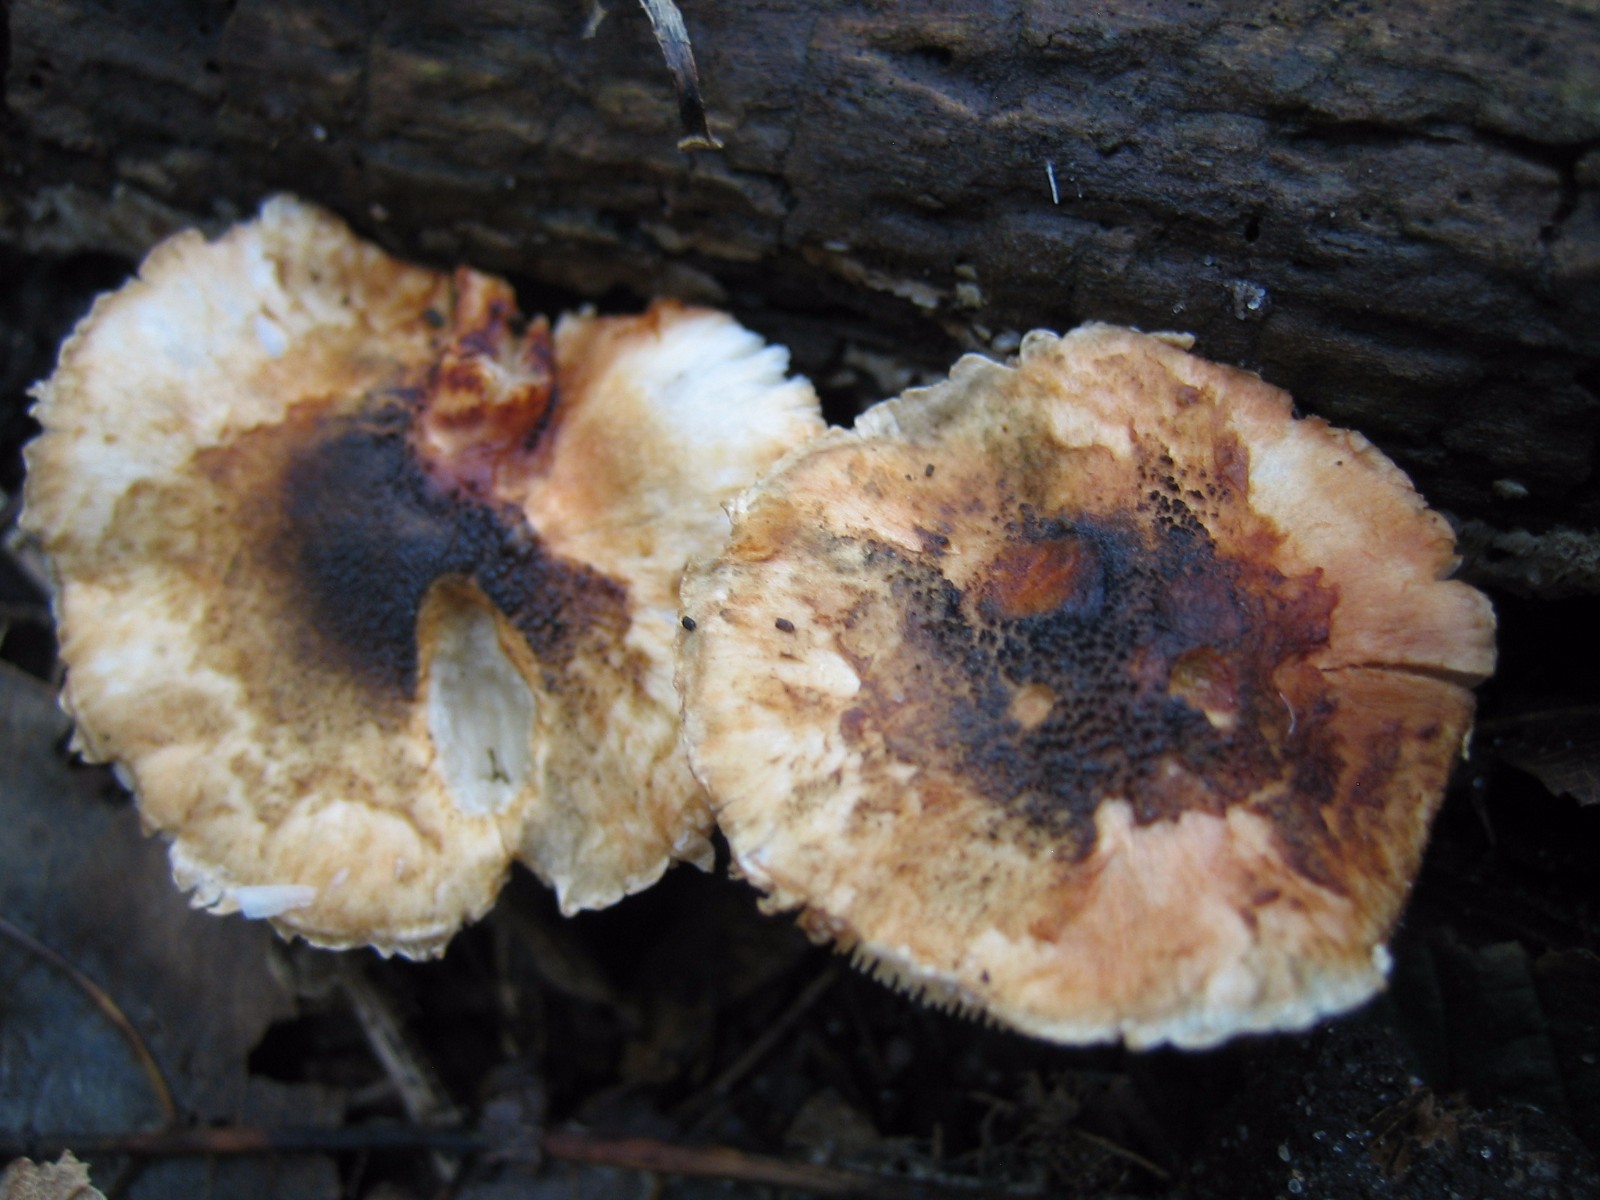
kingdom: Fungi
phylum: Basidiomycota
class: Agaricomycetes
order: Agaricales
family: Agaricaceae
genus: Lepiota
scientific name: Lepiota grangei
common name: grønskællet parasolhat
